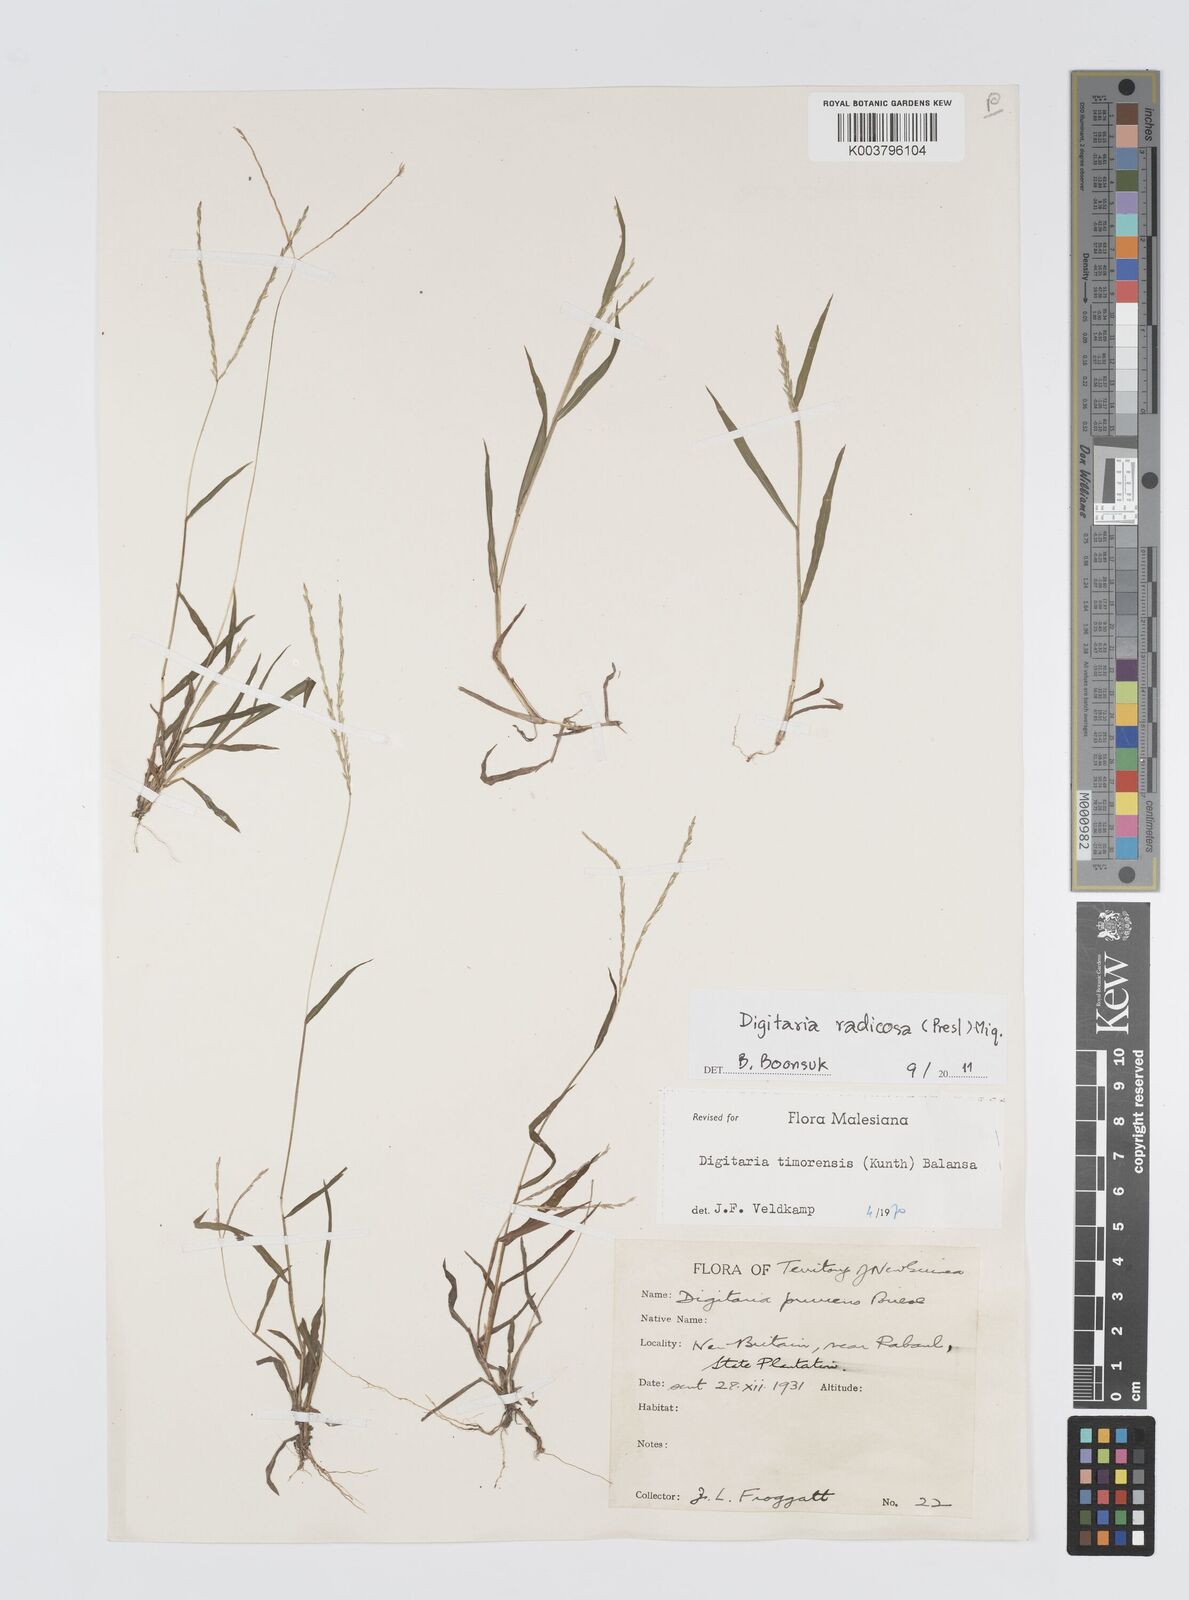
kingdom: Plantae
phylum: Tracheophyta
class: Liliopsida
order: Poales
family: Poaceae
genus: Digitaria
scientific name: Digitaria radicosa
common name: Trailing crabgrass
